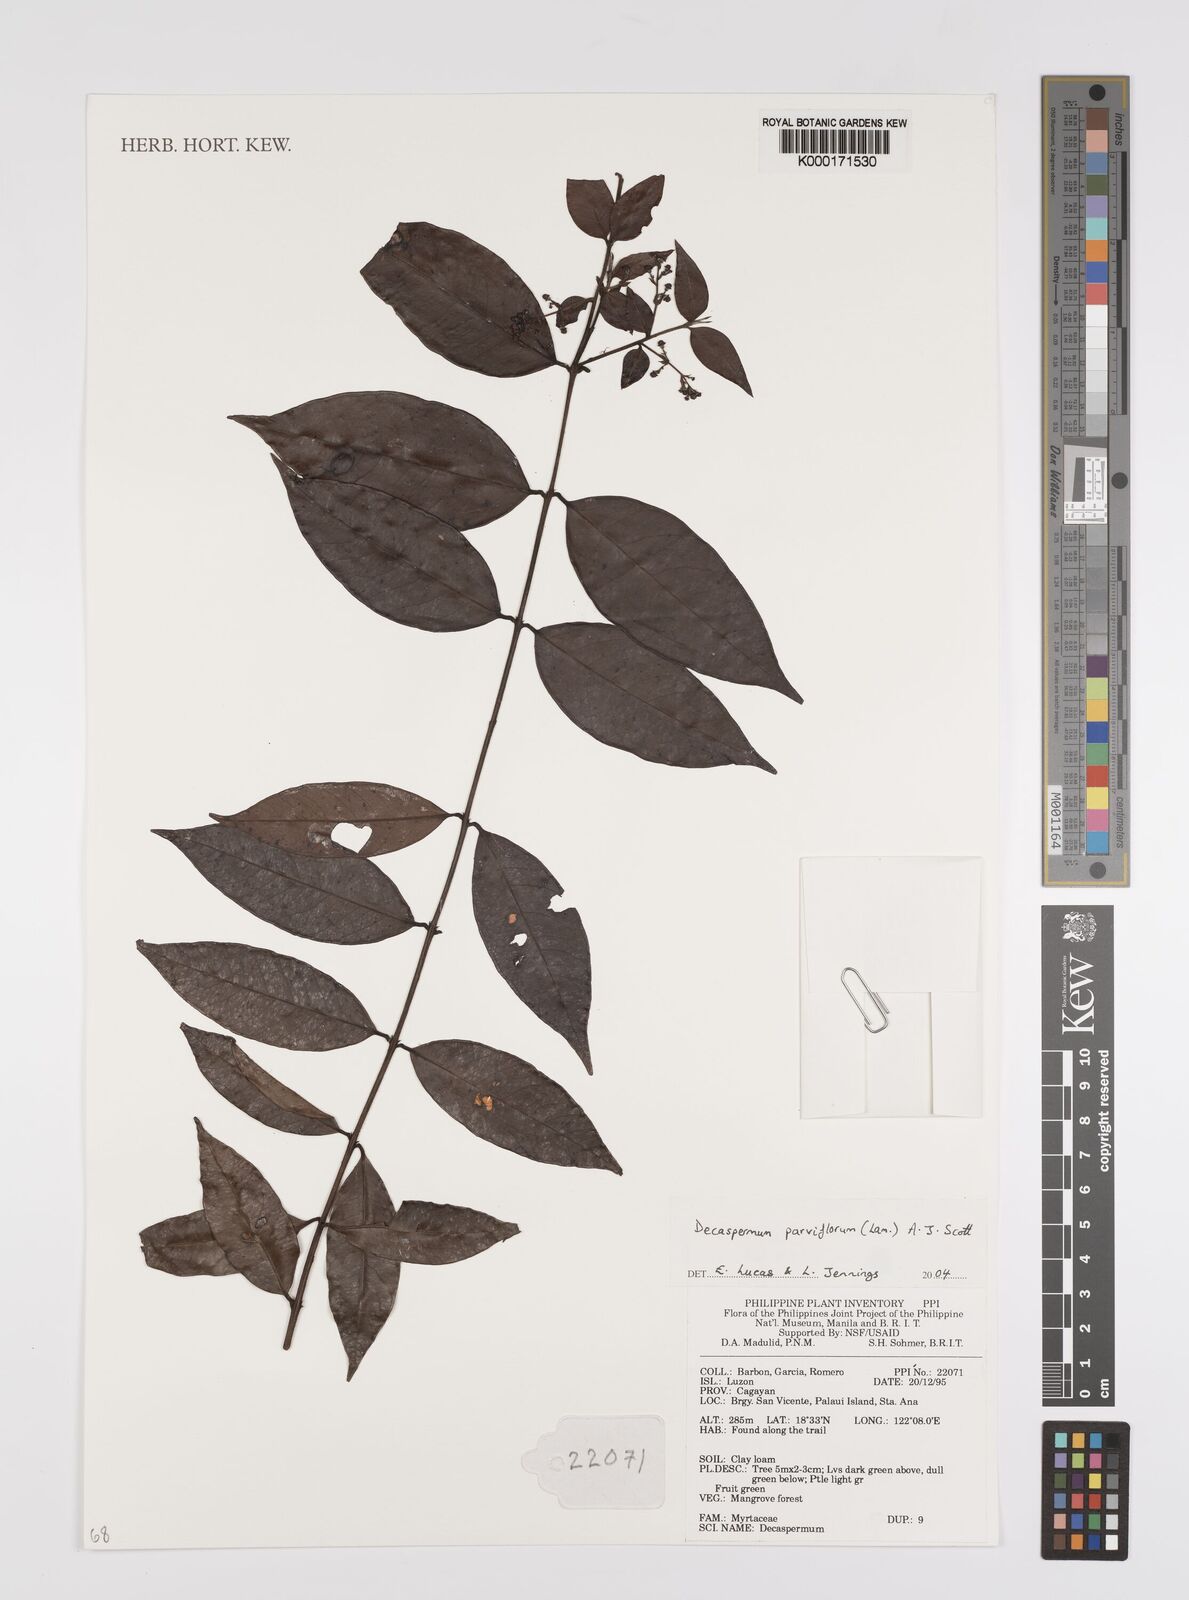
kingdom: Plantae
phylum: Tracheophyta
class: Magnoliopsida
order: Myrtales
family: Myrtaceae
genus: Decaspermum
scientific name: Decaspermum parviflorum
